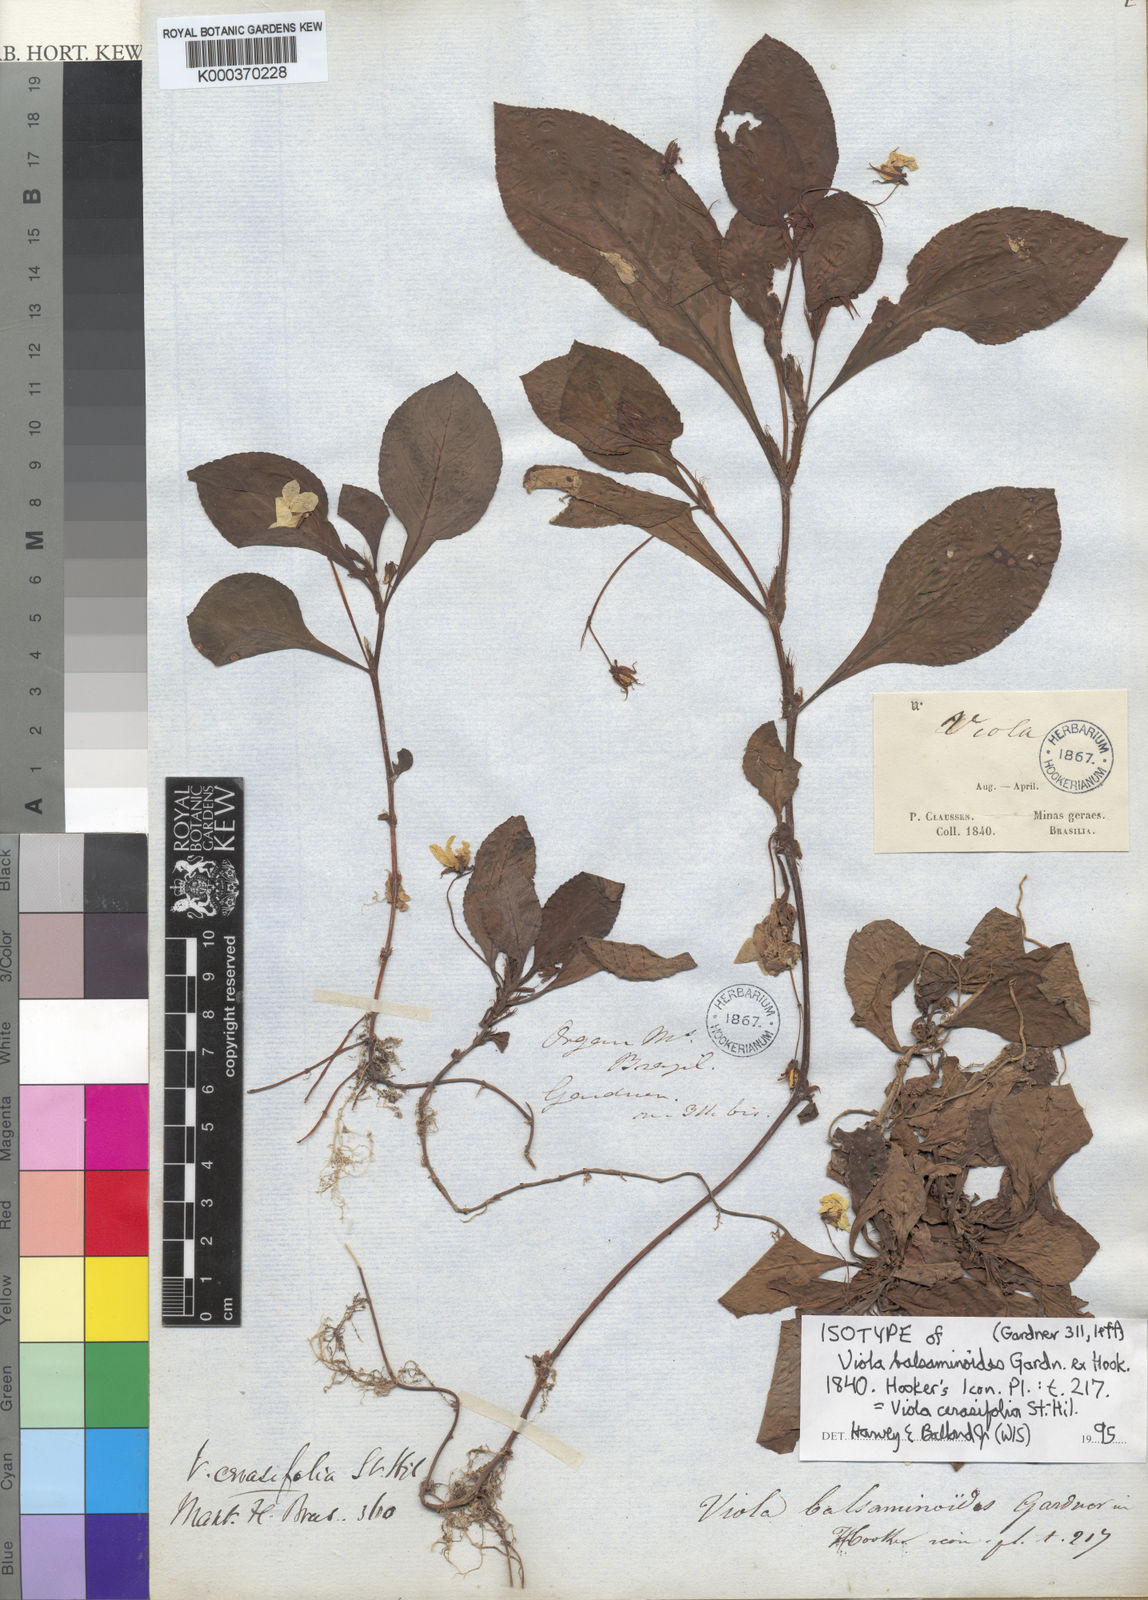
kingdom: Plantae
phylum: Tracheophyta
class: Magnoliopsida
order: Malpighiales
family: Violaceae
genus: Viola
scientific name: Viola cerasifolia
